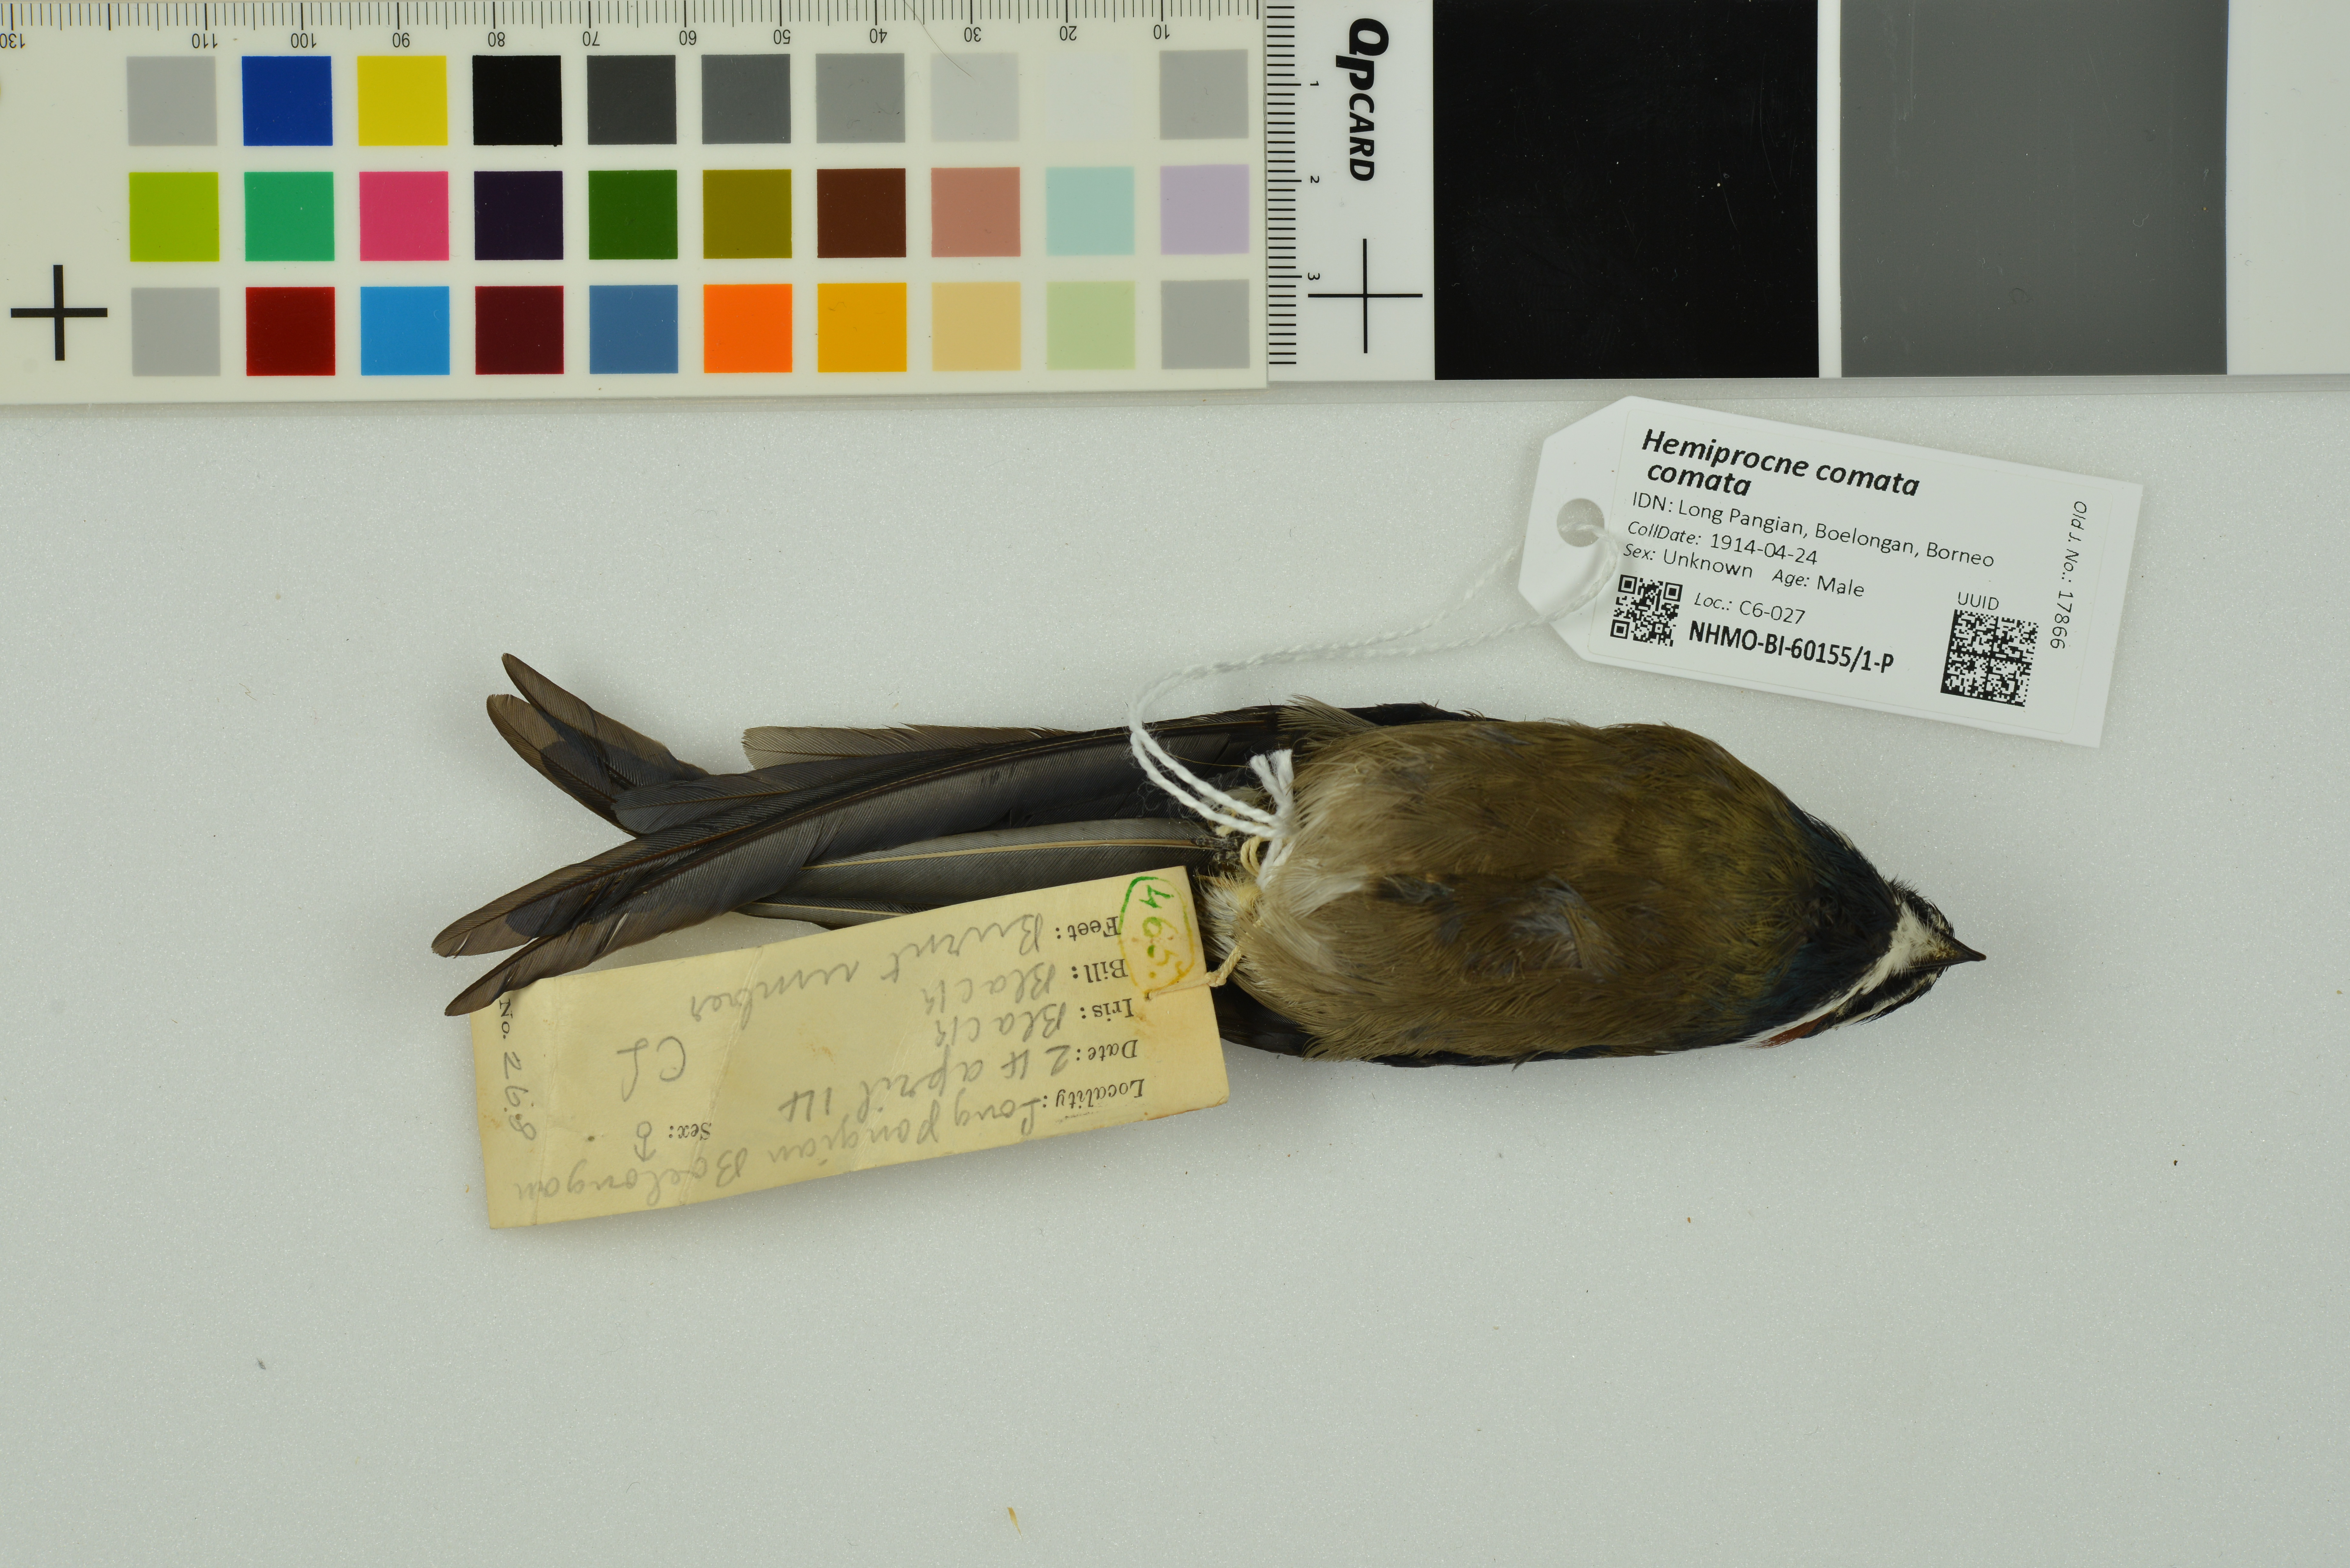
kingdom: Animalia
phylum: Chordata
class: Aves
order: Apodiformes
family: Hemiprocnidae
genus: Hemiprocne
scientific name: Hemiprocne comata
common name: Whiskered treeswift
